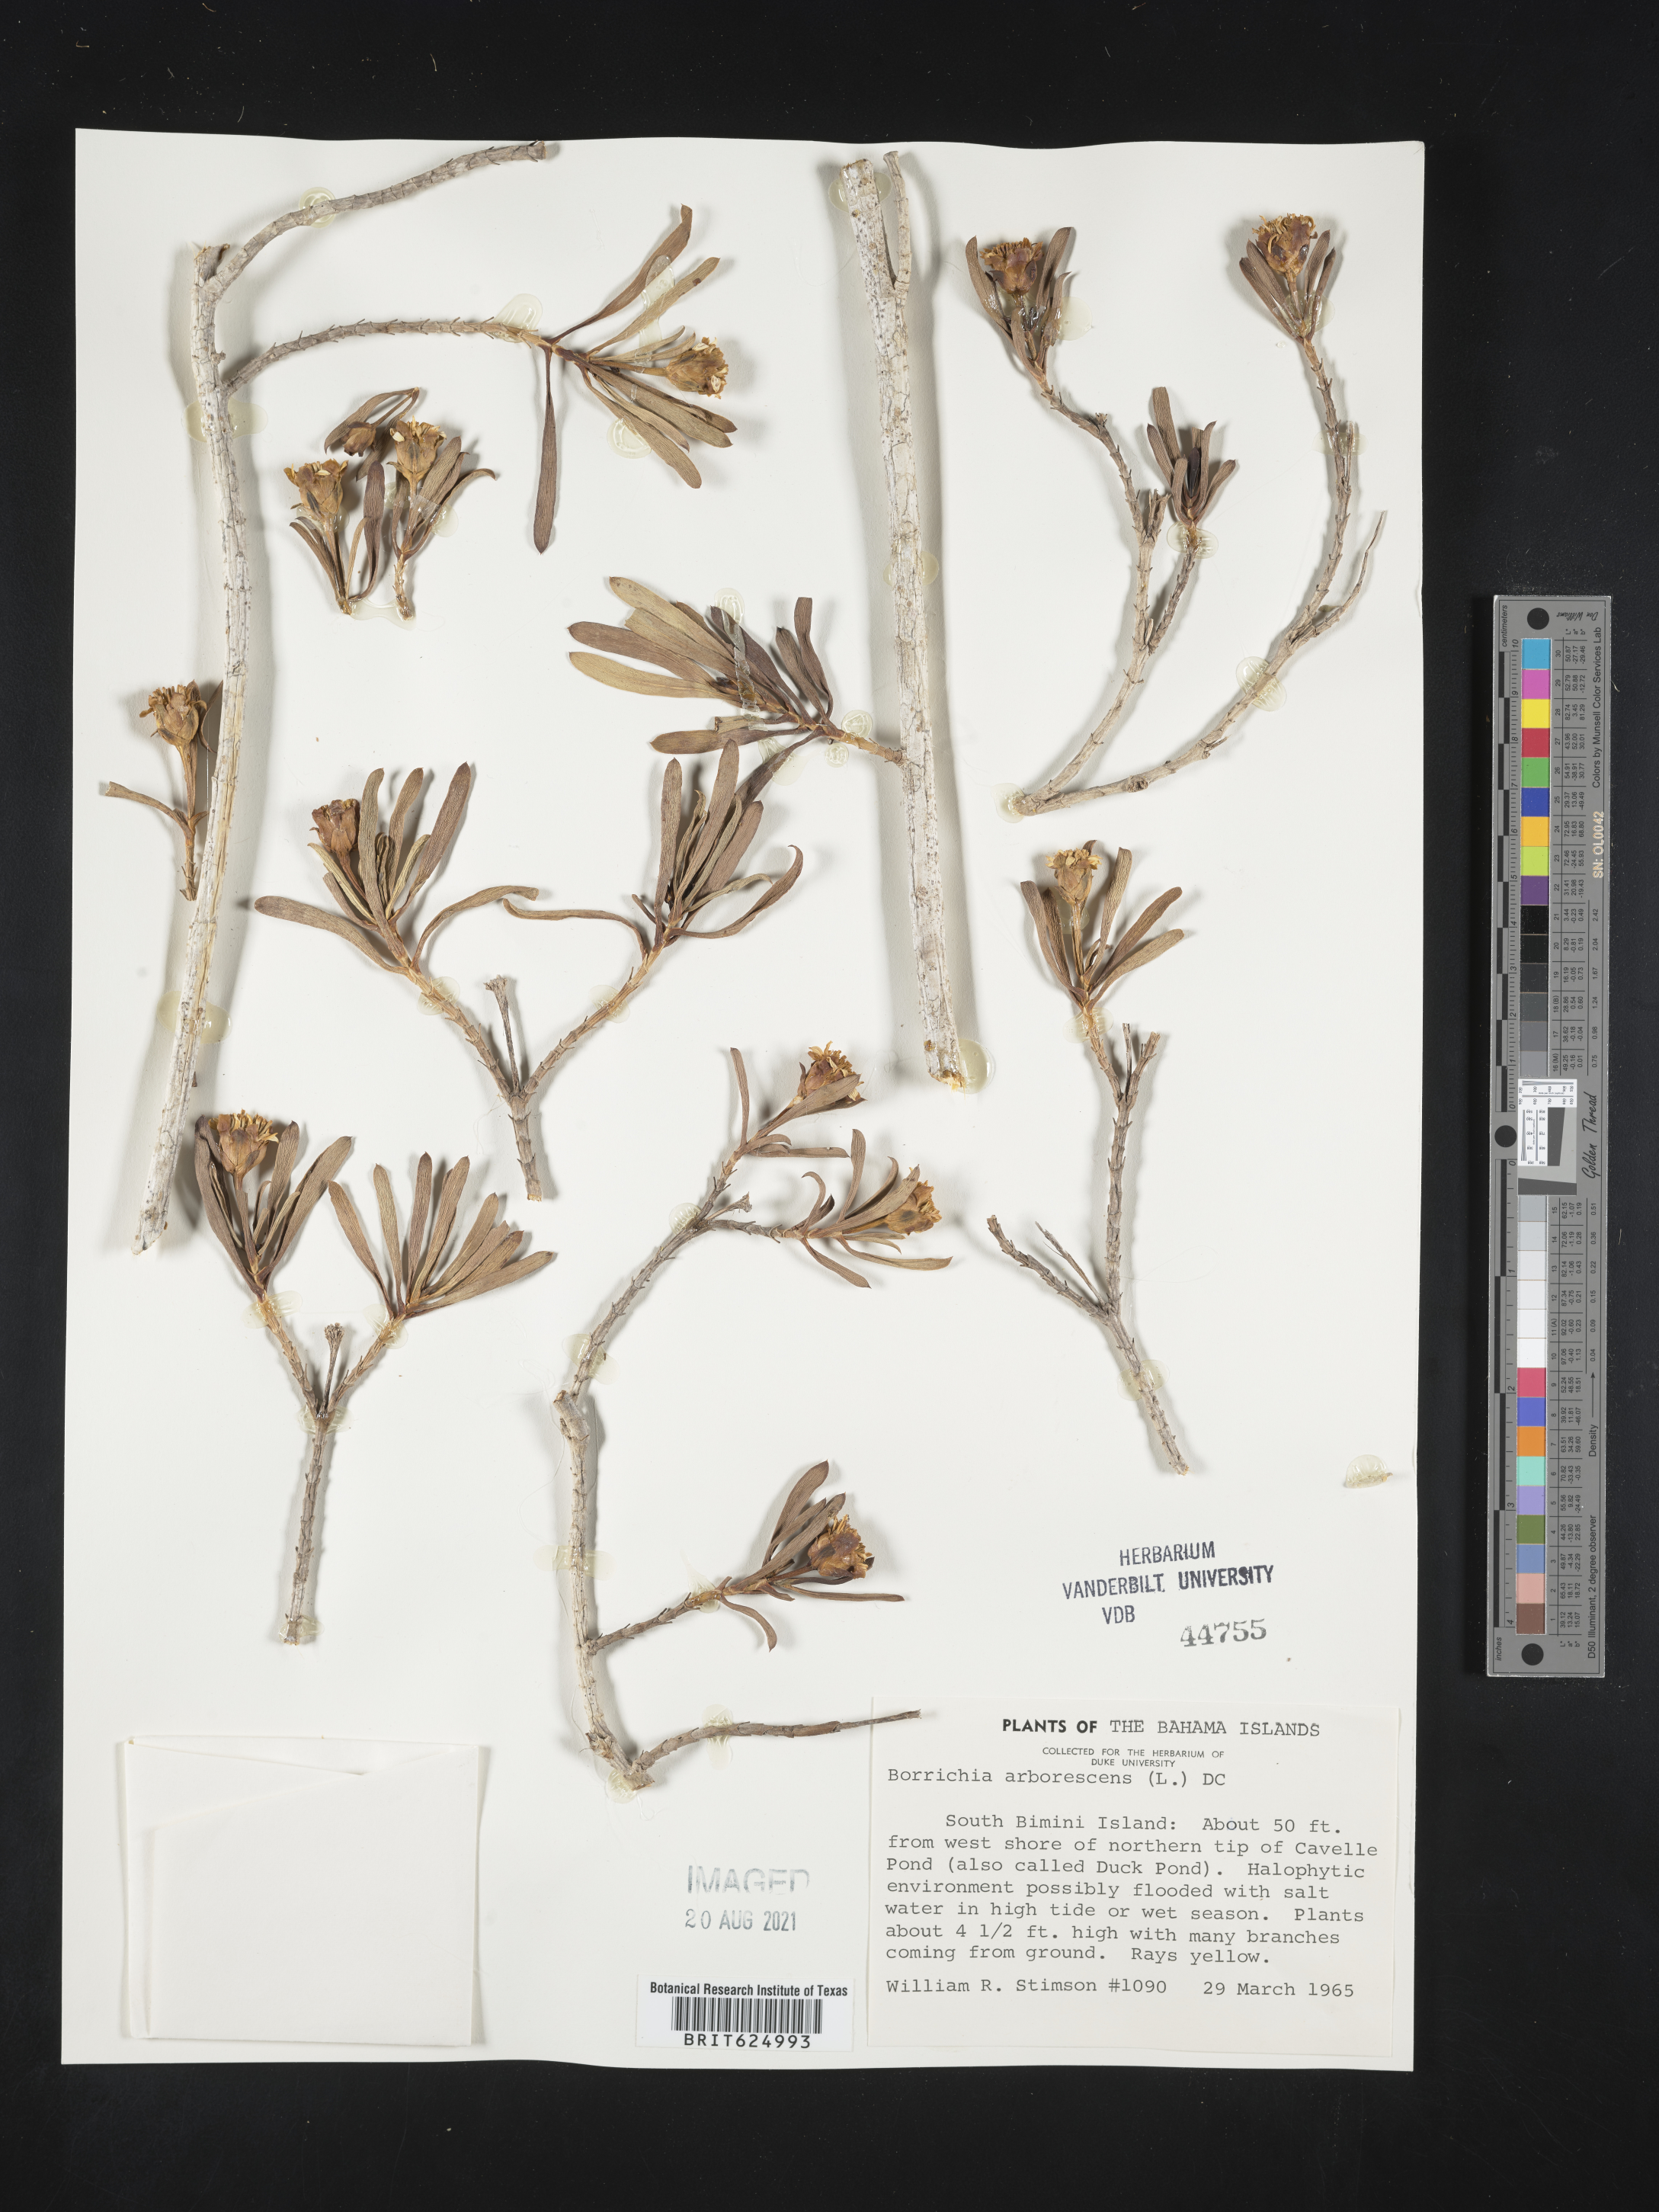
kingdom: Plantae
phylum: Tracheophyta
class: Magnoliopsida
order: Asterales
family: Asteraceae
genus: Borrichia
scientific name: Borrichia arborescens
